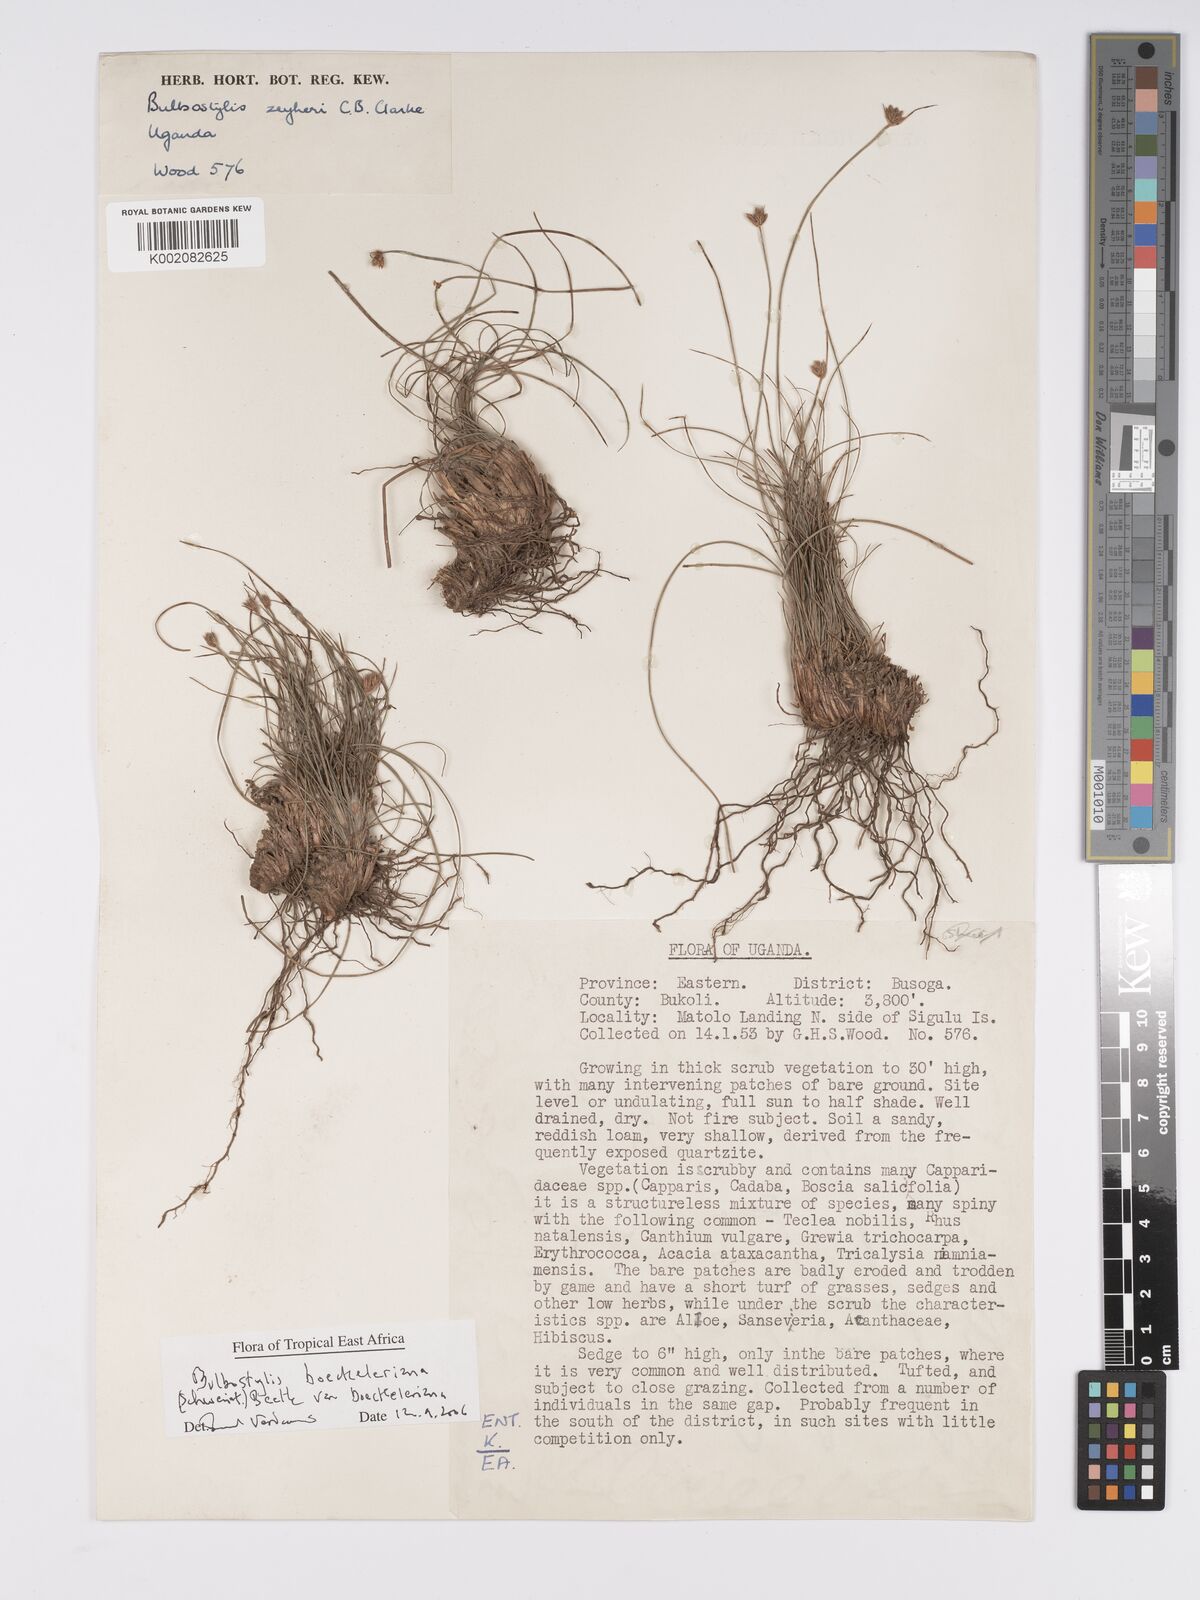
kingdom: Plantae
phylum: Tracheophyta
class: Liliopsida
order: Poales
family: Cyperaceae
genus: Bulbostylis
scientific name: Bulbostylis boeckeleriana
